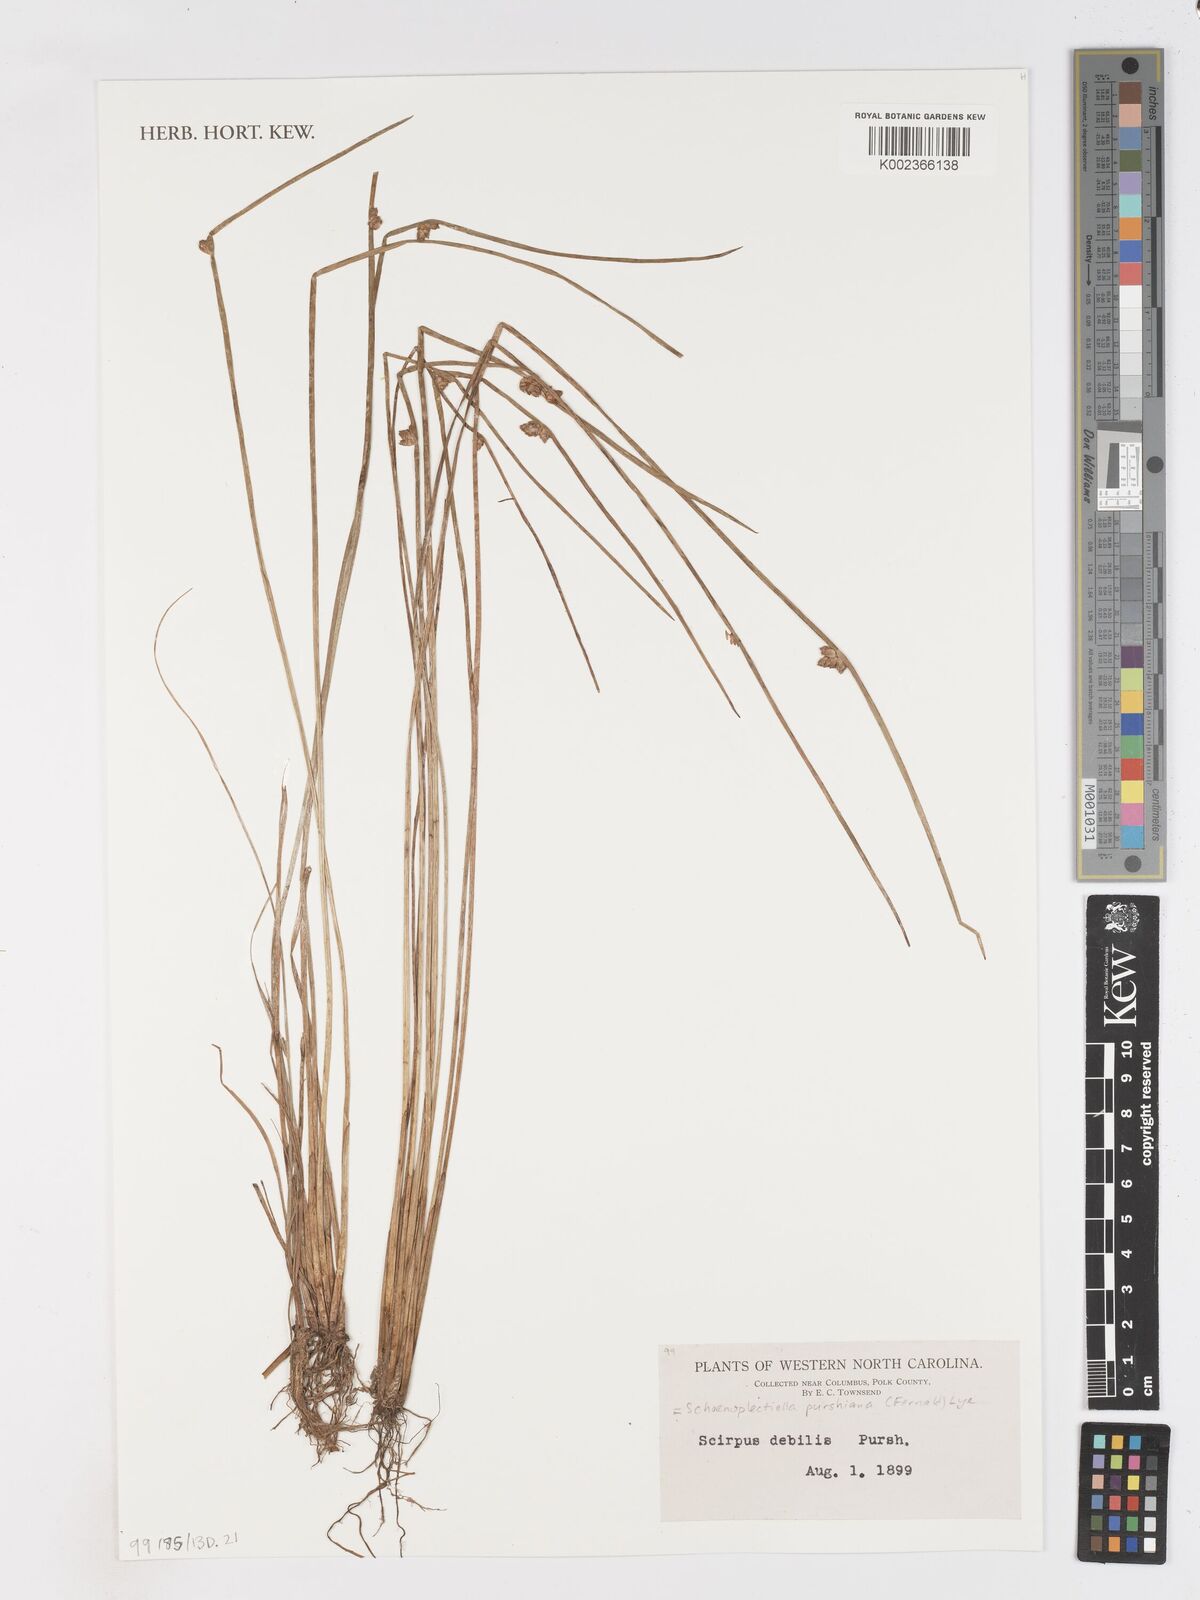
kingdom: Plantae
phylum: Tracheophyta
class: Liliopsida
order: Poales
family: Cyperaceae
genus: Schoenoplectiella
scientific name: Schoenoplectiella purshiana
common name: Weak-stalked bulrush
